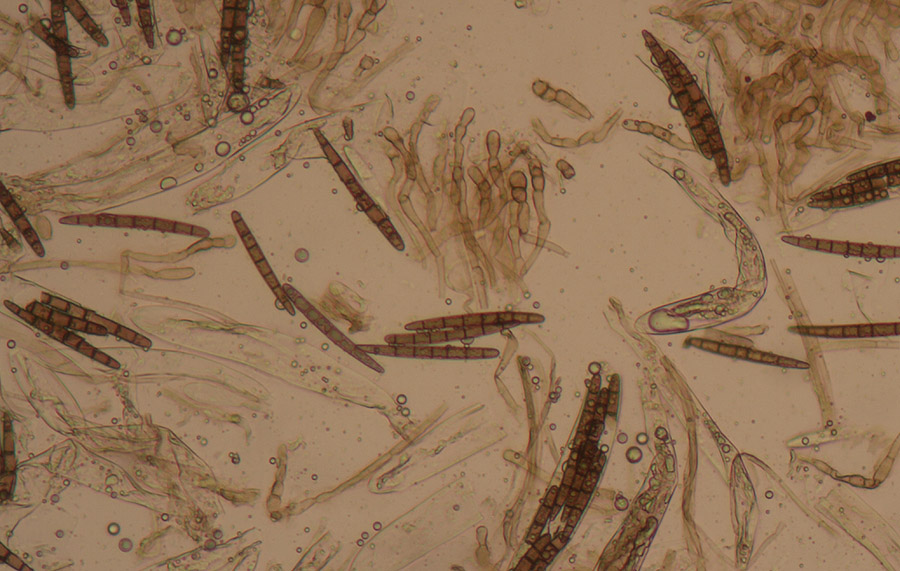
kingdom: Fungi
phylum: Ascomycota
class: Geoglossomycetes
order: Geoglossales
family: Geoglossaceae
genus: Geoglossum
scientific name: Geoglossum cookeianum
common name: bred jordtunge
